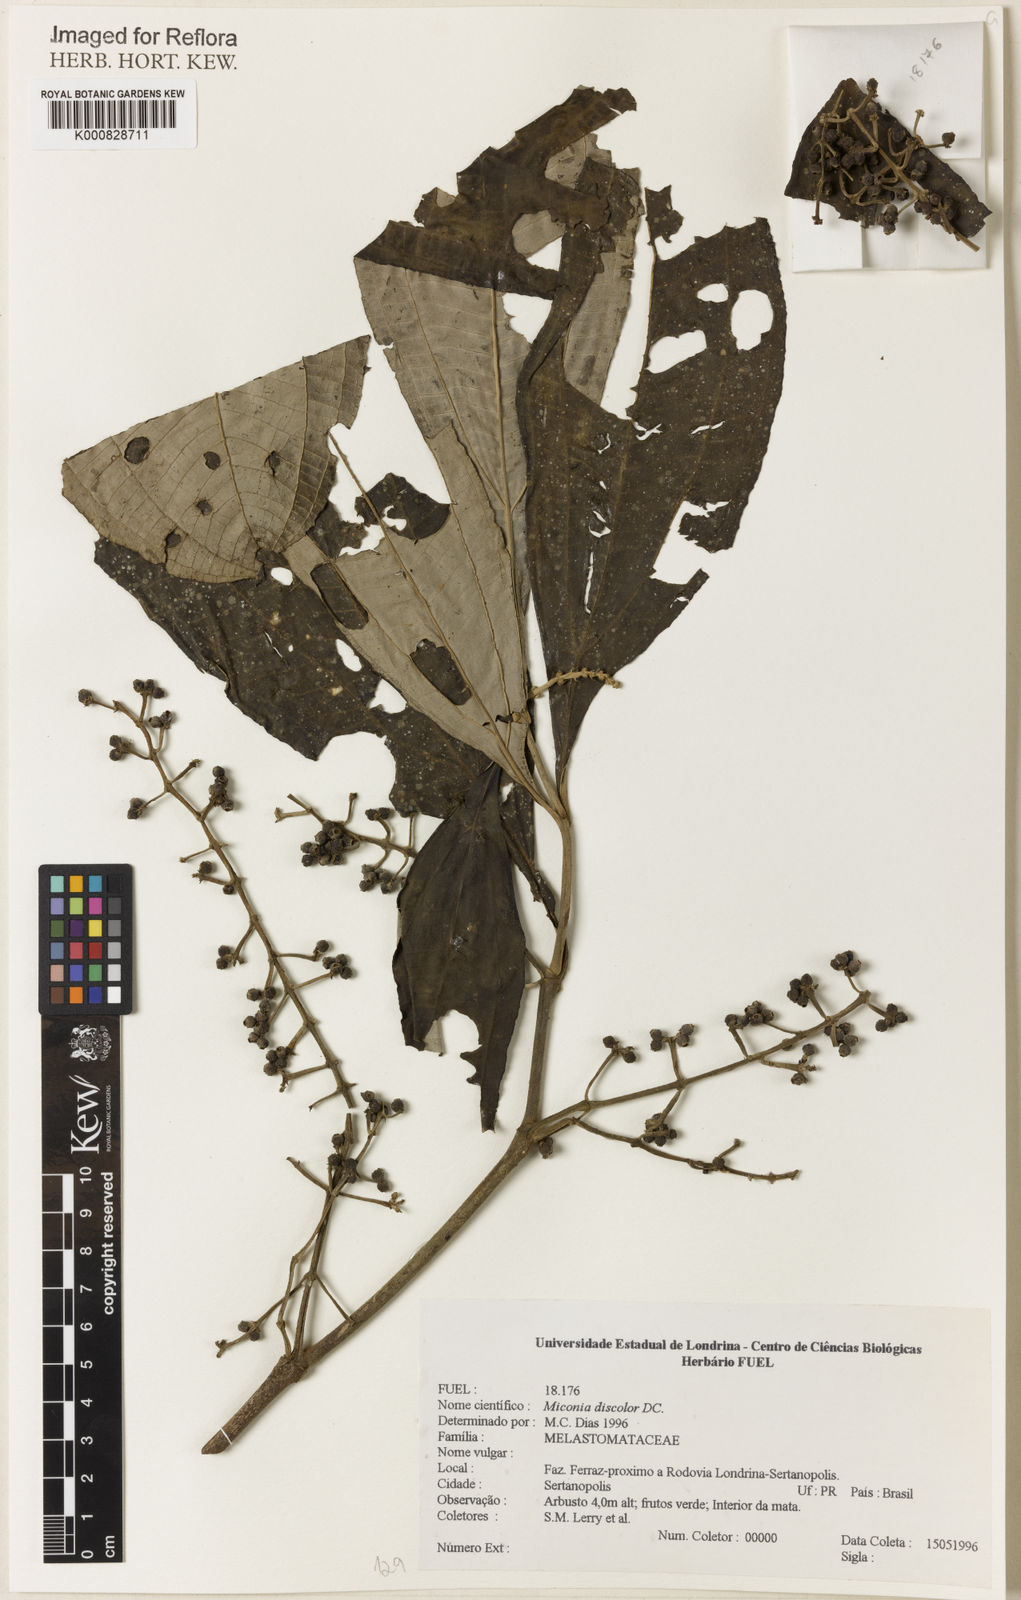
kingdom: Plantae
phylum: Tracheophyta
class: Magnoliopsida
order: Myrtales
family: Melastomataceae
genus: Miconia
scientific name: Miconia discolor
